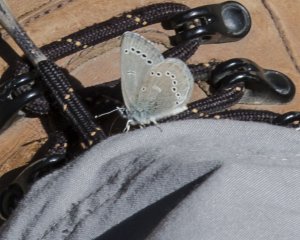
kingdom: Animalia
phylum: Arthropoda
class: Insecta
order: Lepidoptera
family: Lycaenidae
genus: Glaucopsyche
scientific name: Glaucopsyche lygdamus
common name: Silvery Blue
